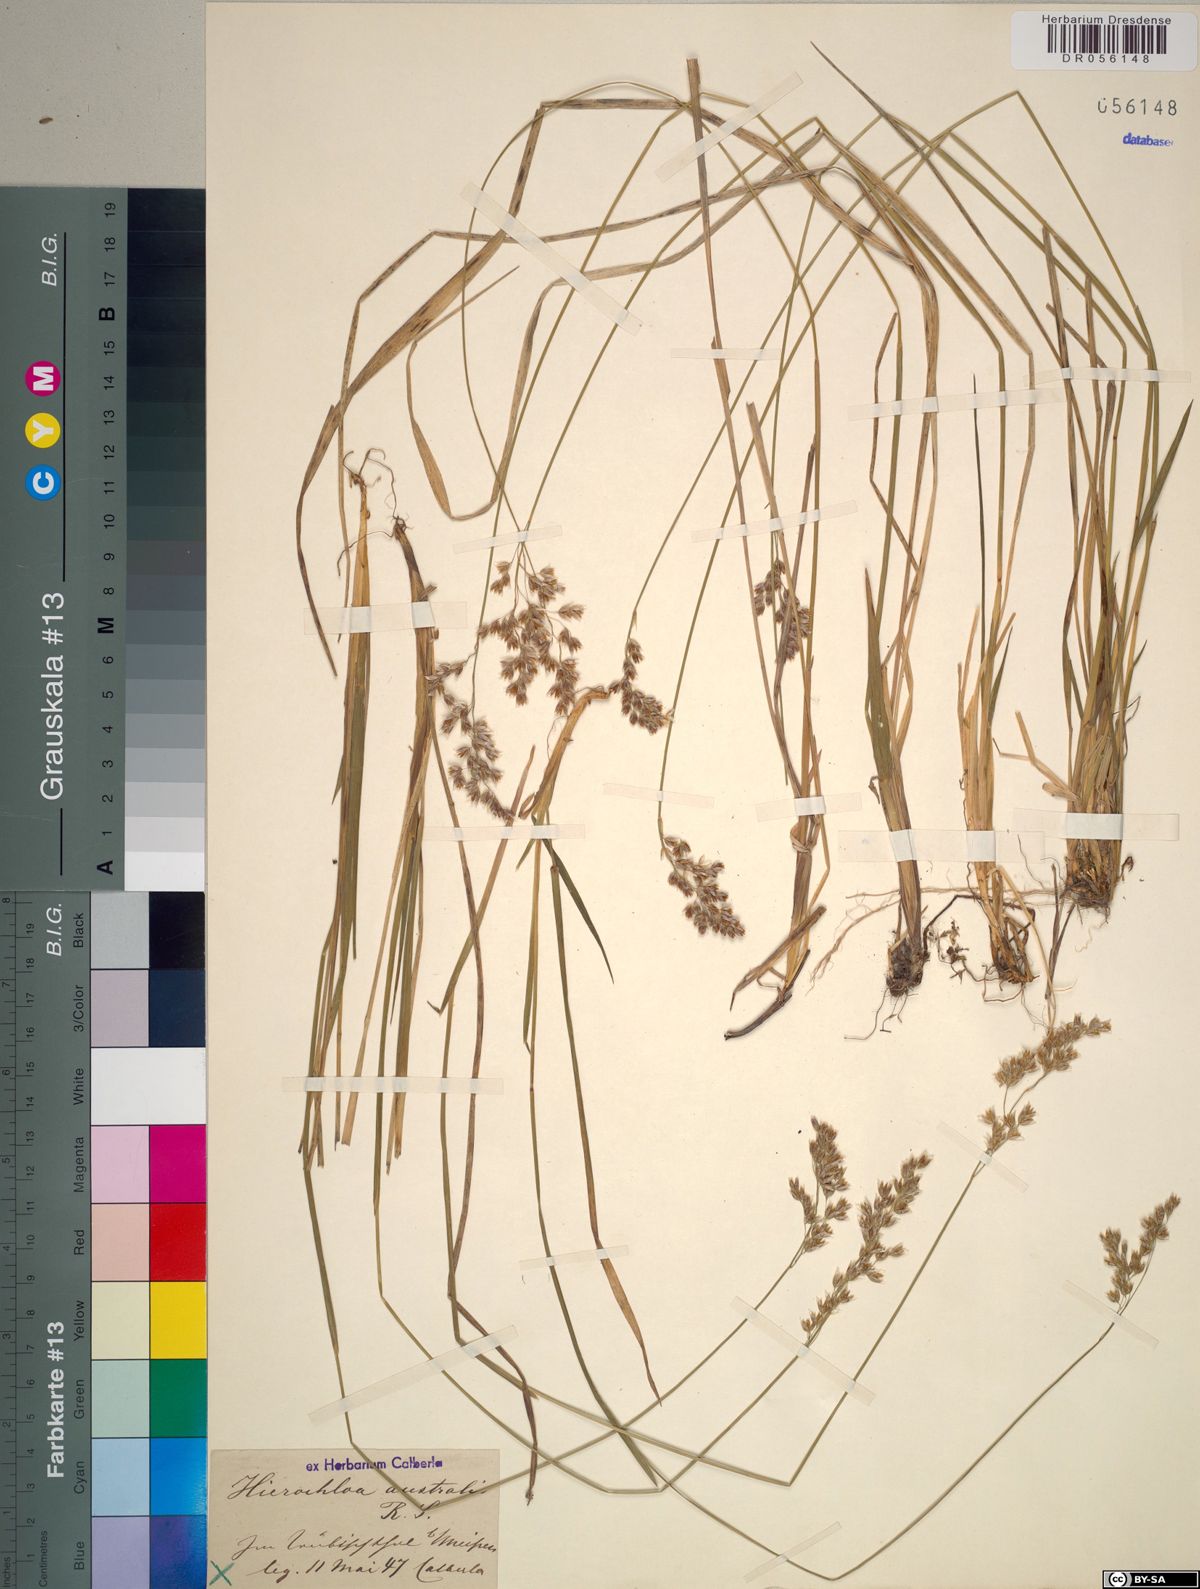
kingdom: Plantae
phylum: Tracheophyta
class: Liliopsida
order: Poales
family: Poaceae
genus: Anthoxanthum
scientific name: Anthoxanthum australe
